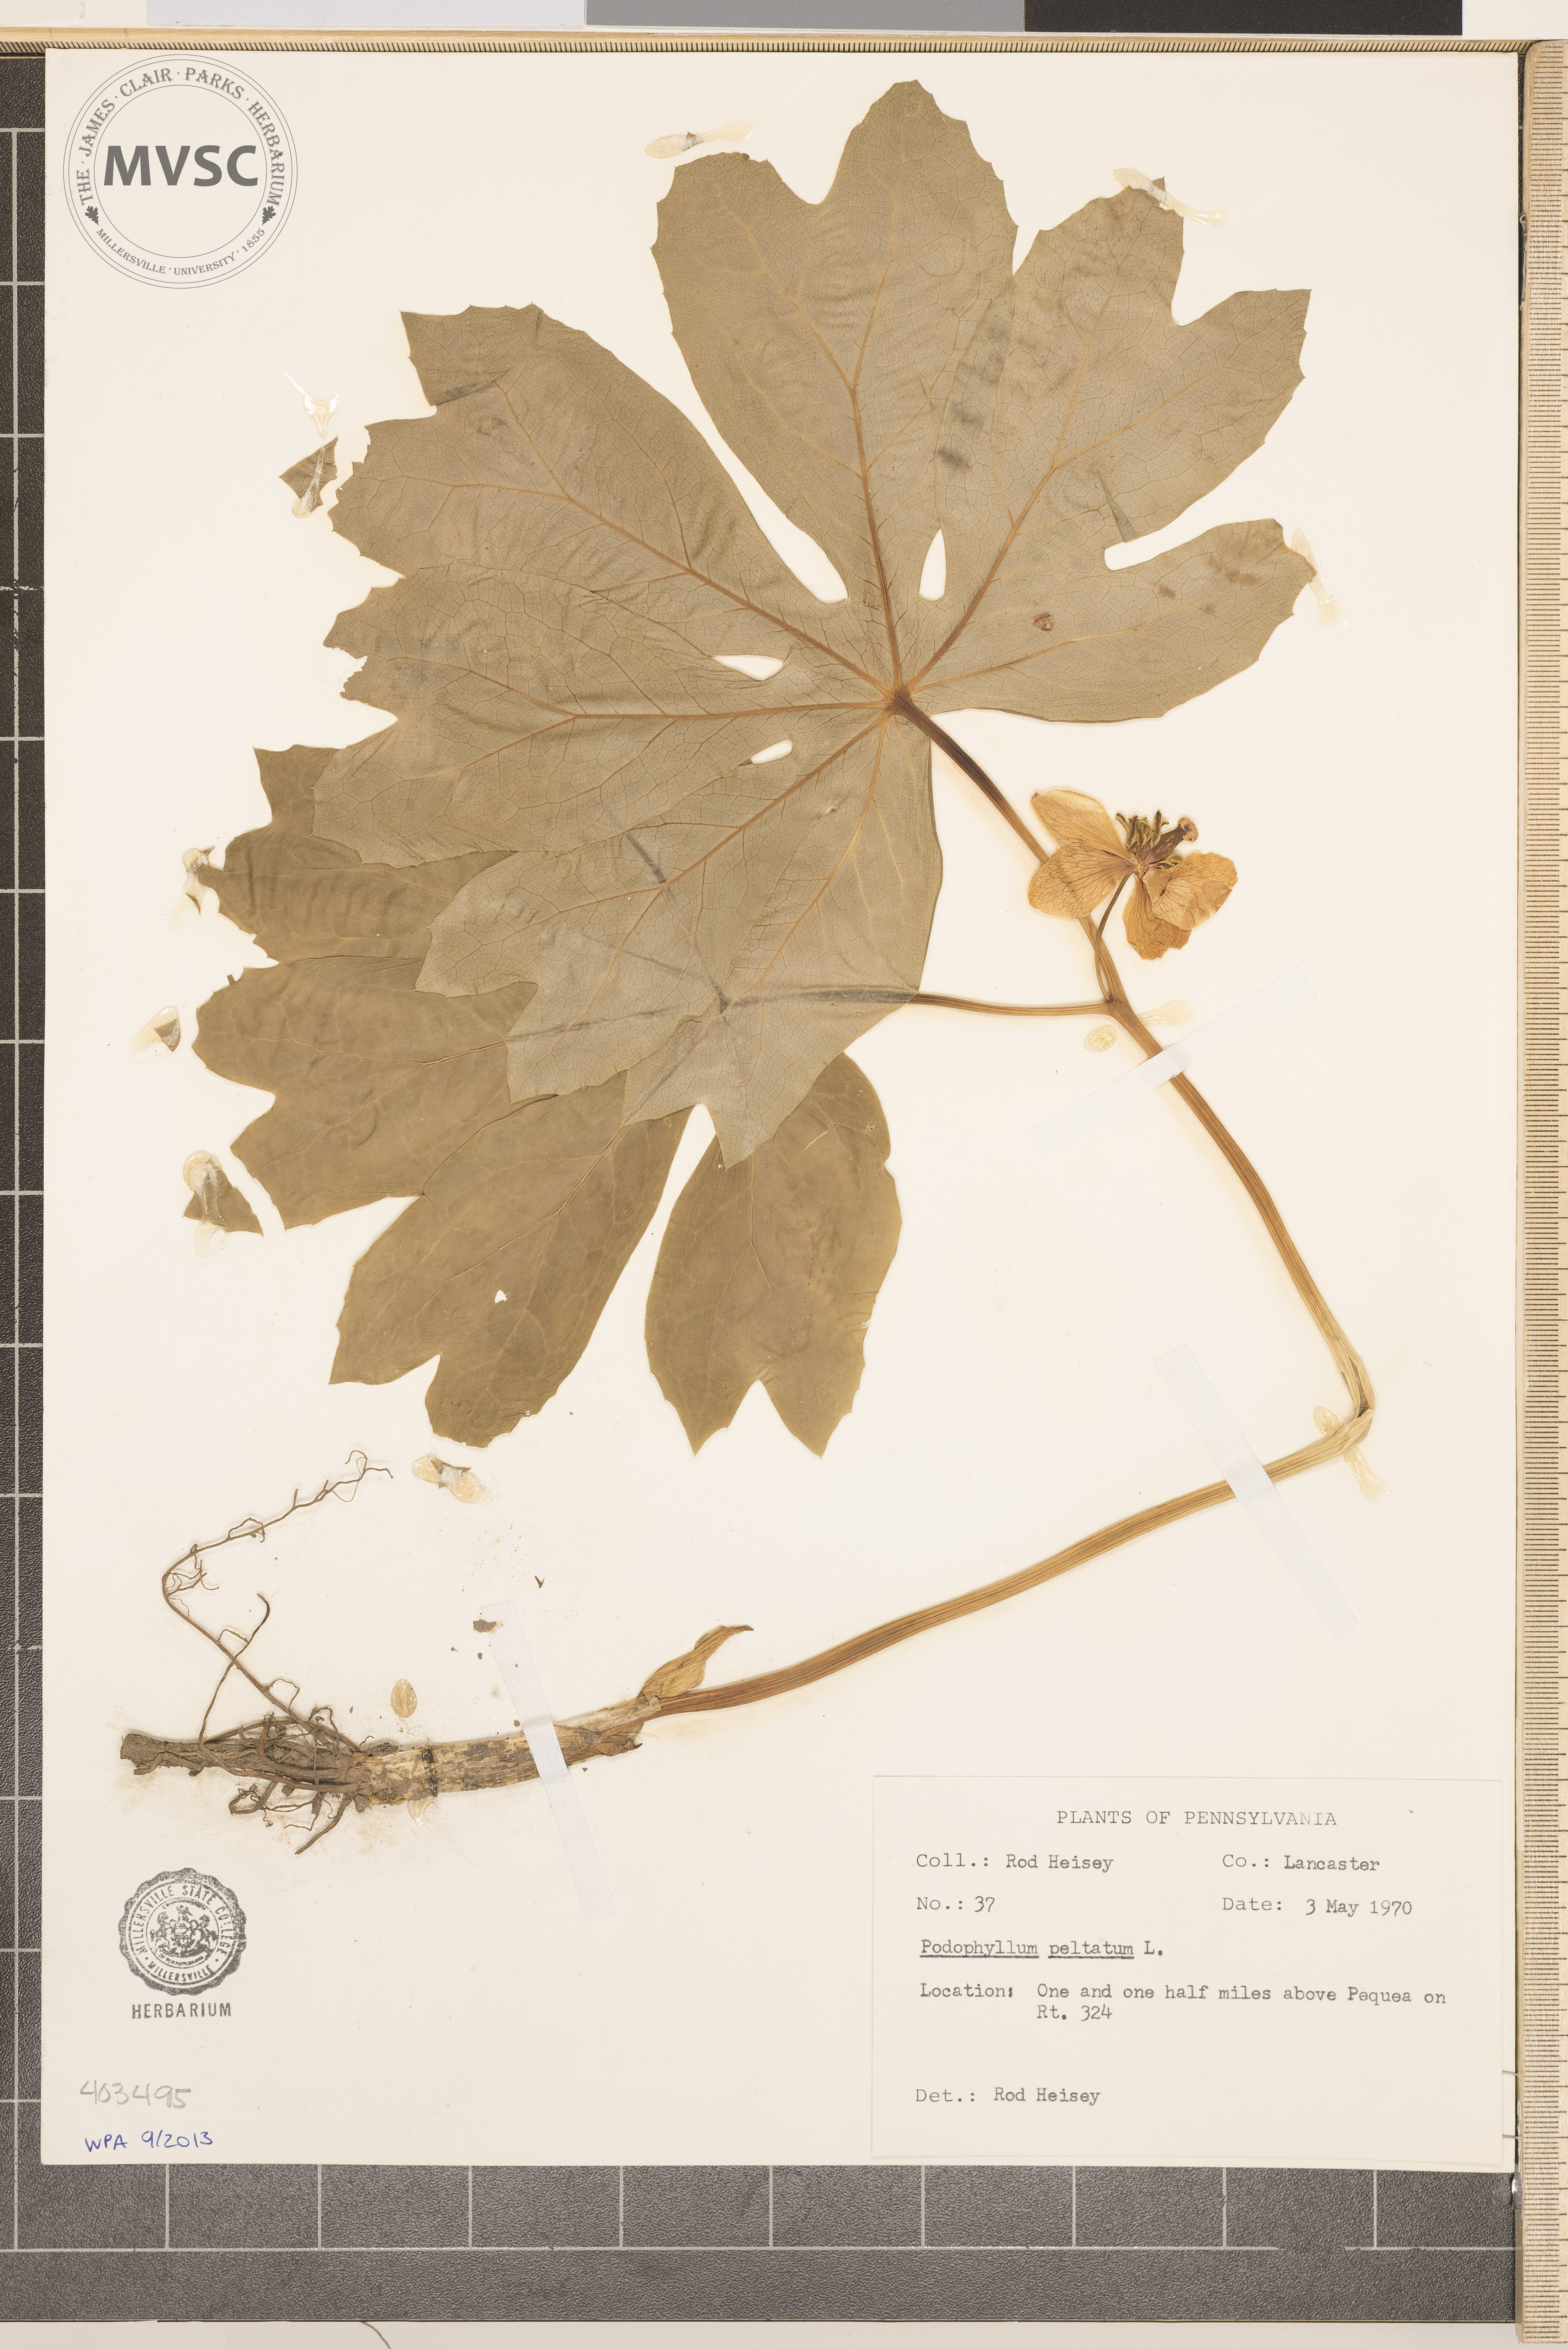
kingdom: Plantae
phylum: Tracheophyta
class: Magnoliopsida
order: Ranunculales
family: Berberidaceae
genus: Podophyllum
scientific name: Podophyllum peltatum
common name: May-Apple
